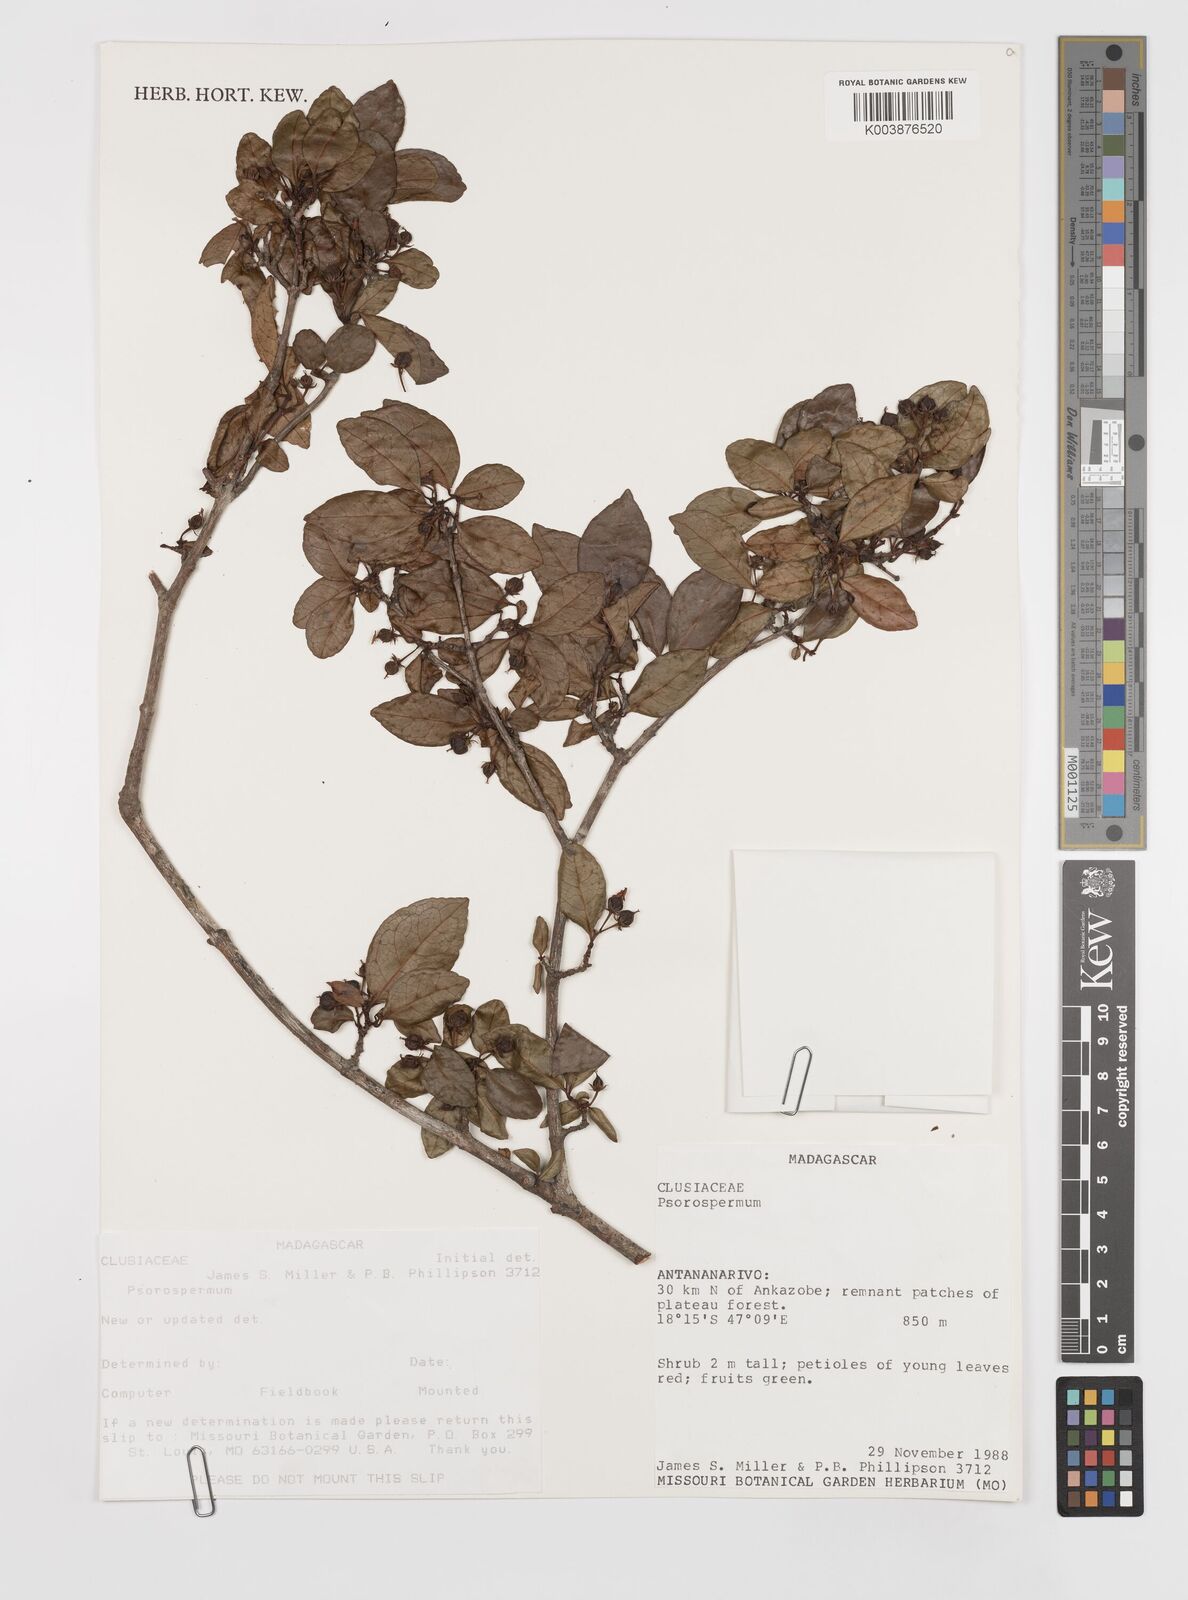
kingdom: Plantae
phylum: Tracheophyta
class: Magnoliopsida
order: Malpighiales
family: Hypericaceae
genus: Psorospermum
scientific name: Psorospermum
